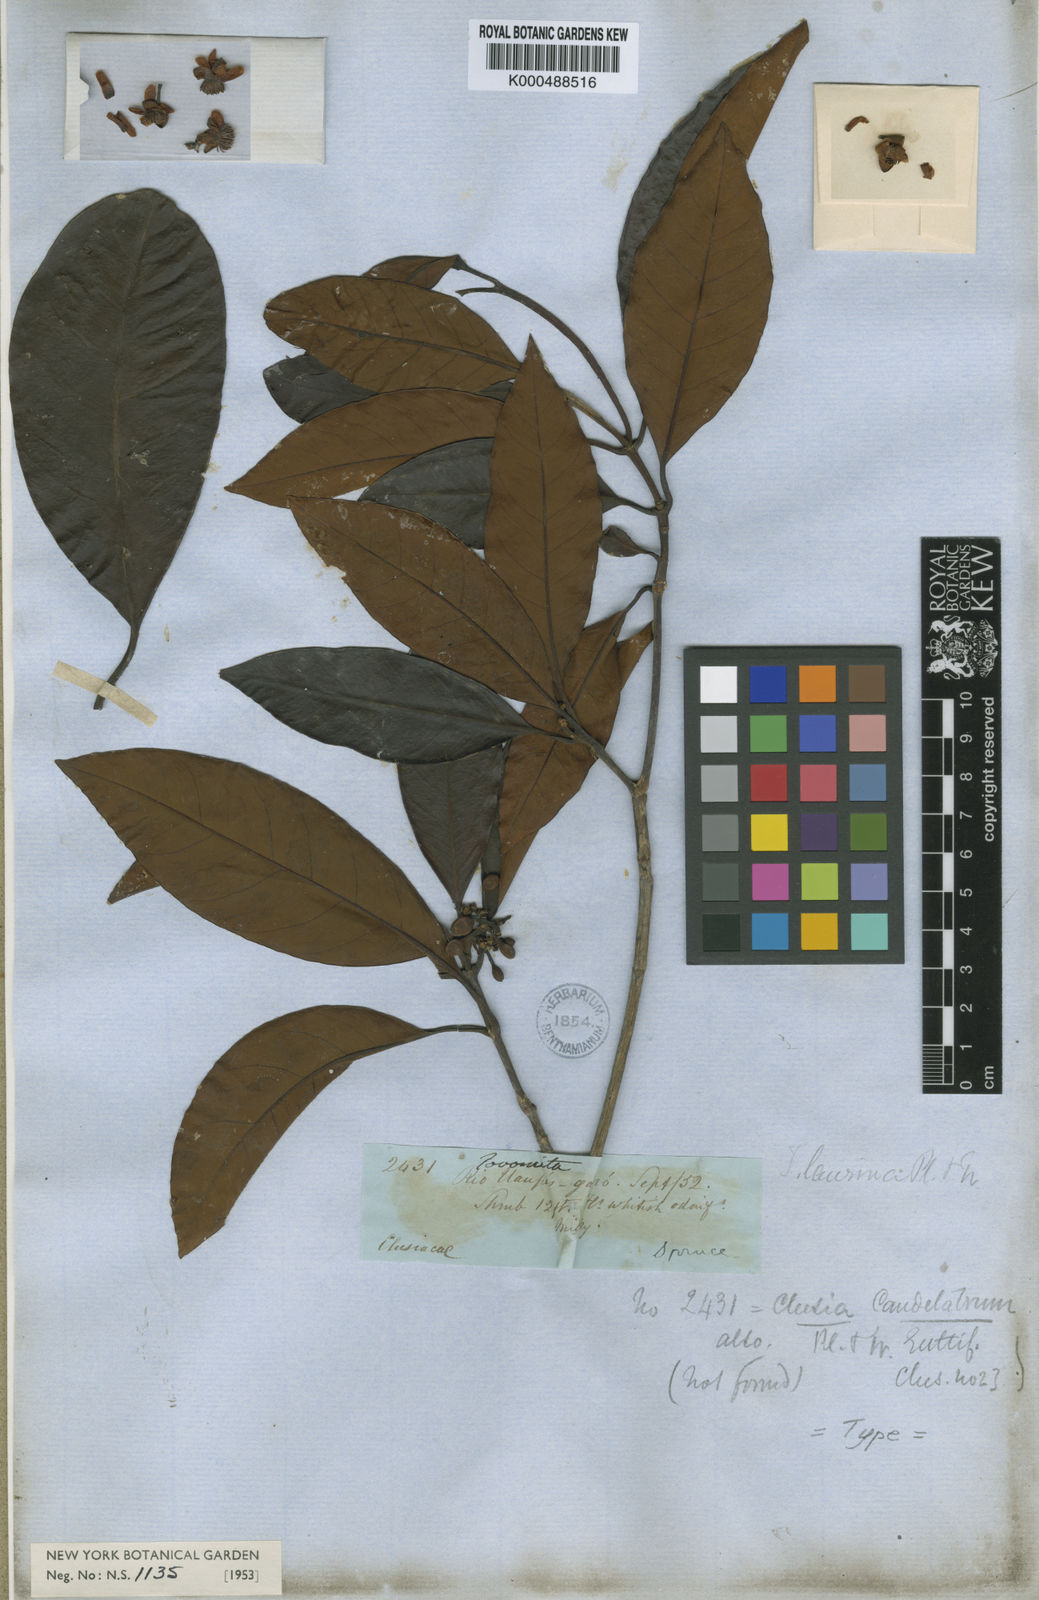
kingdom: Plantae
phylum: Tracheophyta
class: Magnoliopsida
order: Malpighiales
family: Clusiaceae
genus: Tovomita
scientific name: Tovomita laurina
